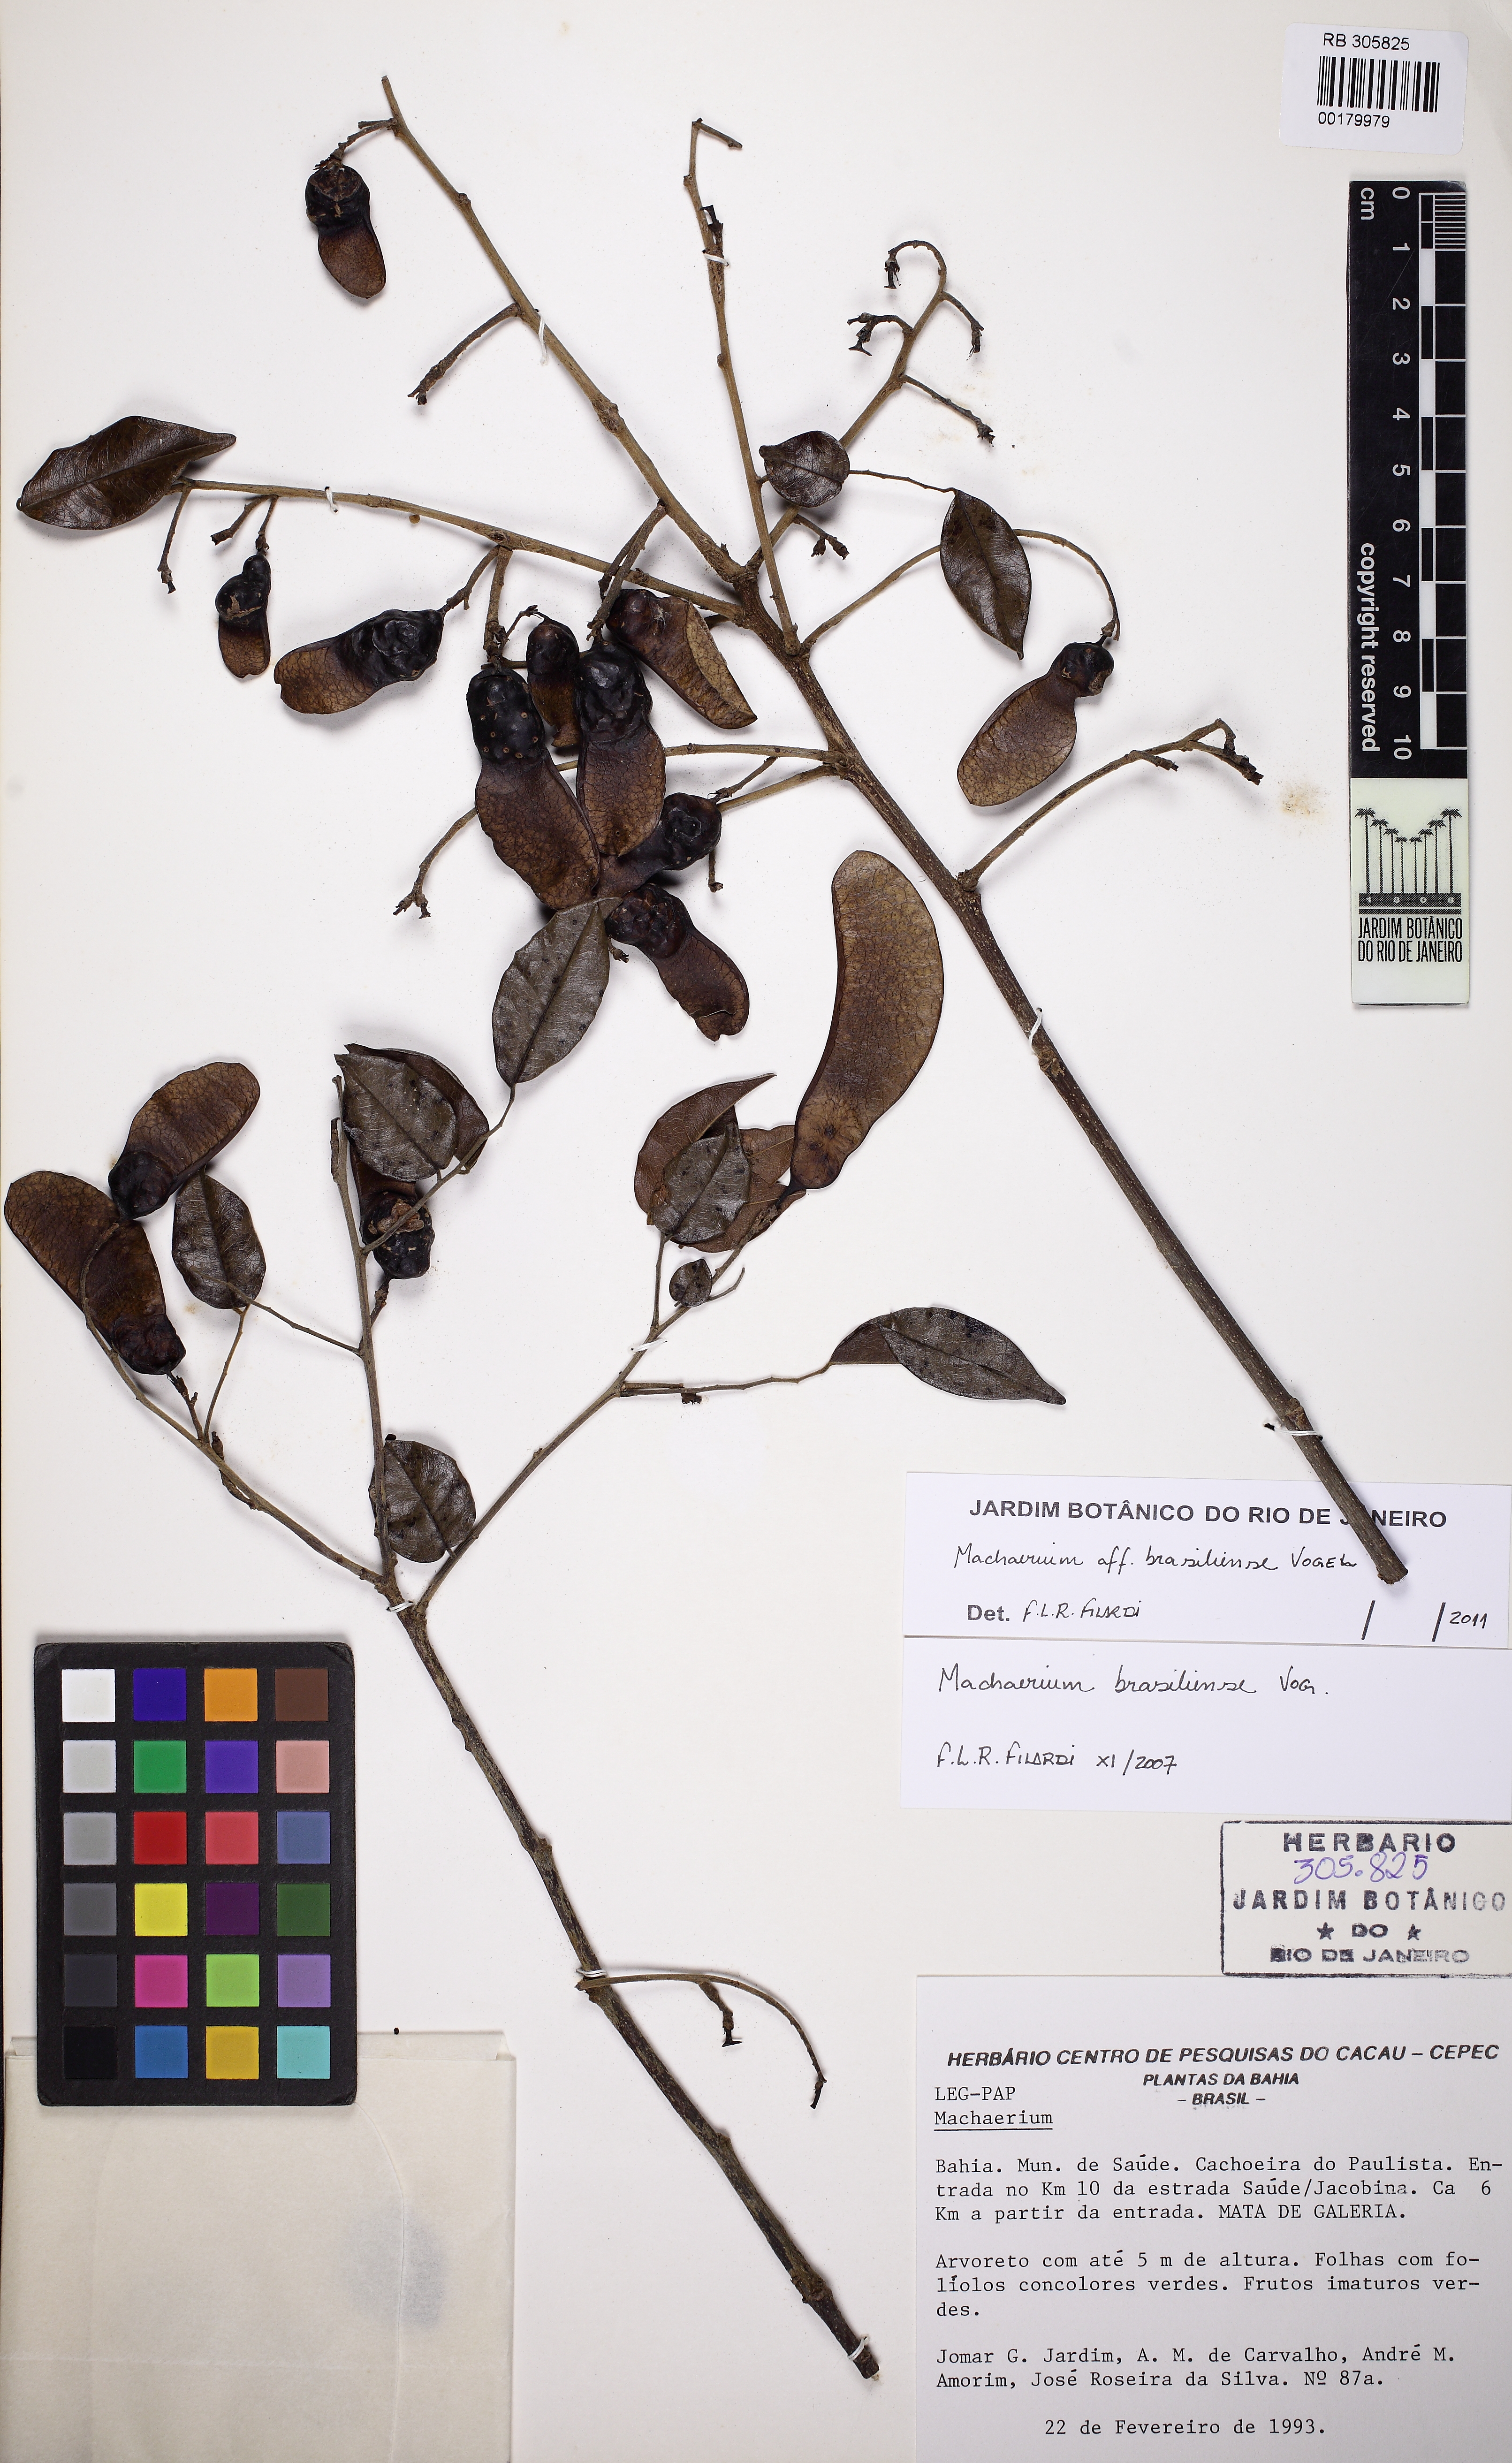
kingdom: Plantae
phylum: Tracheophyta
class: Magnoliopsida
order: Fabales
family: Fabaceae
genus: Machaerium
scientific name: Machaerium brasiliense
